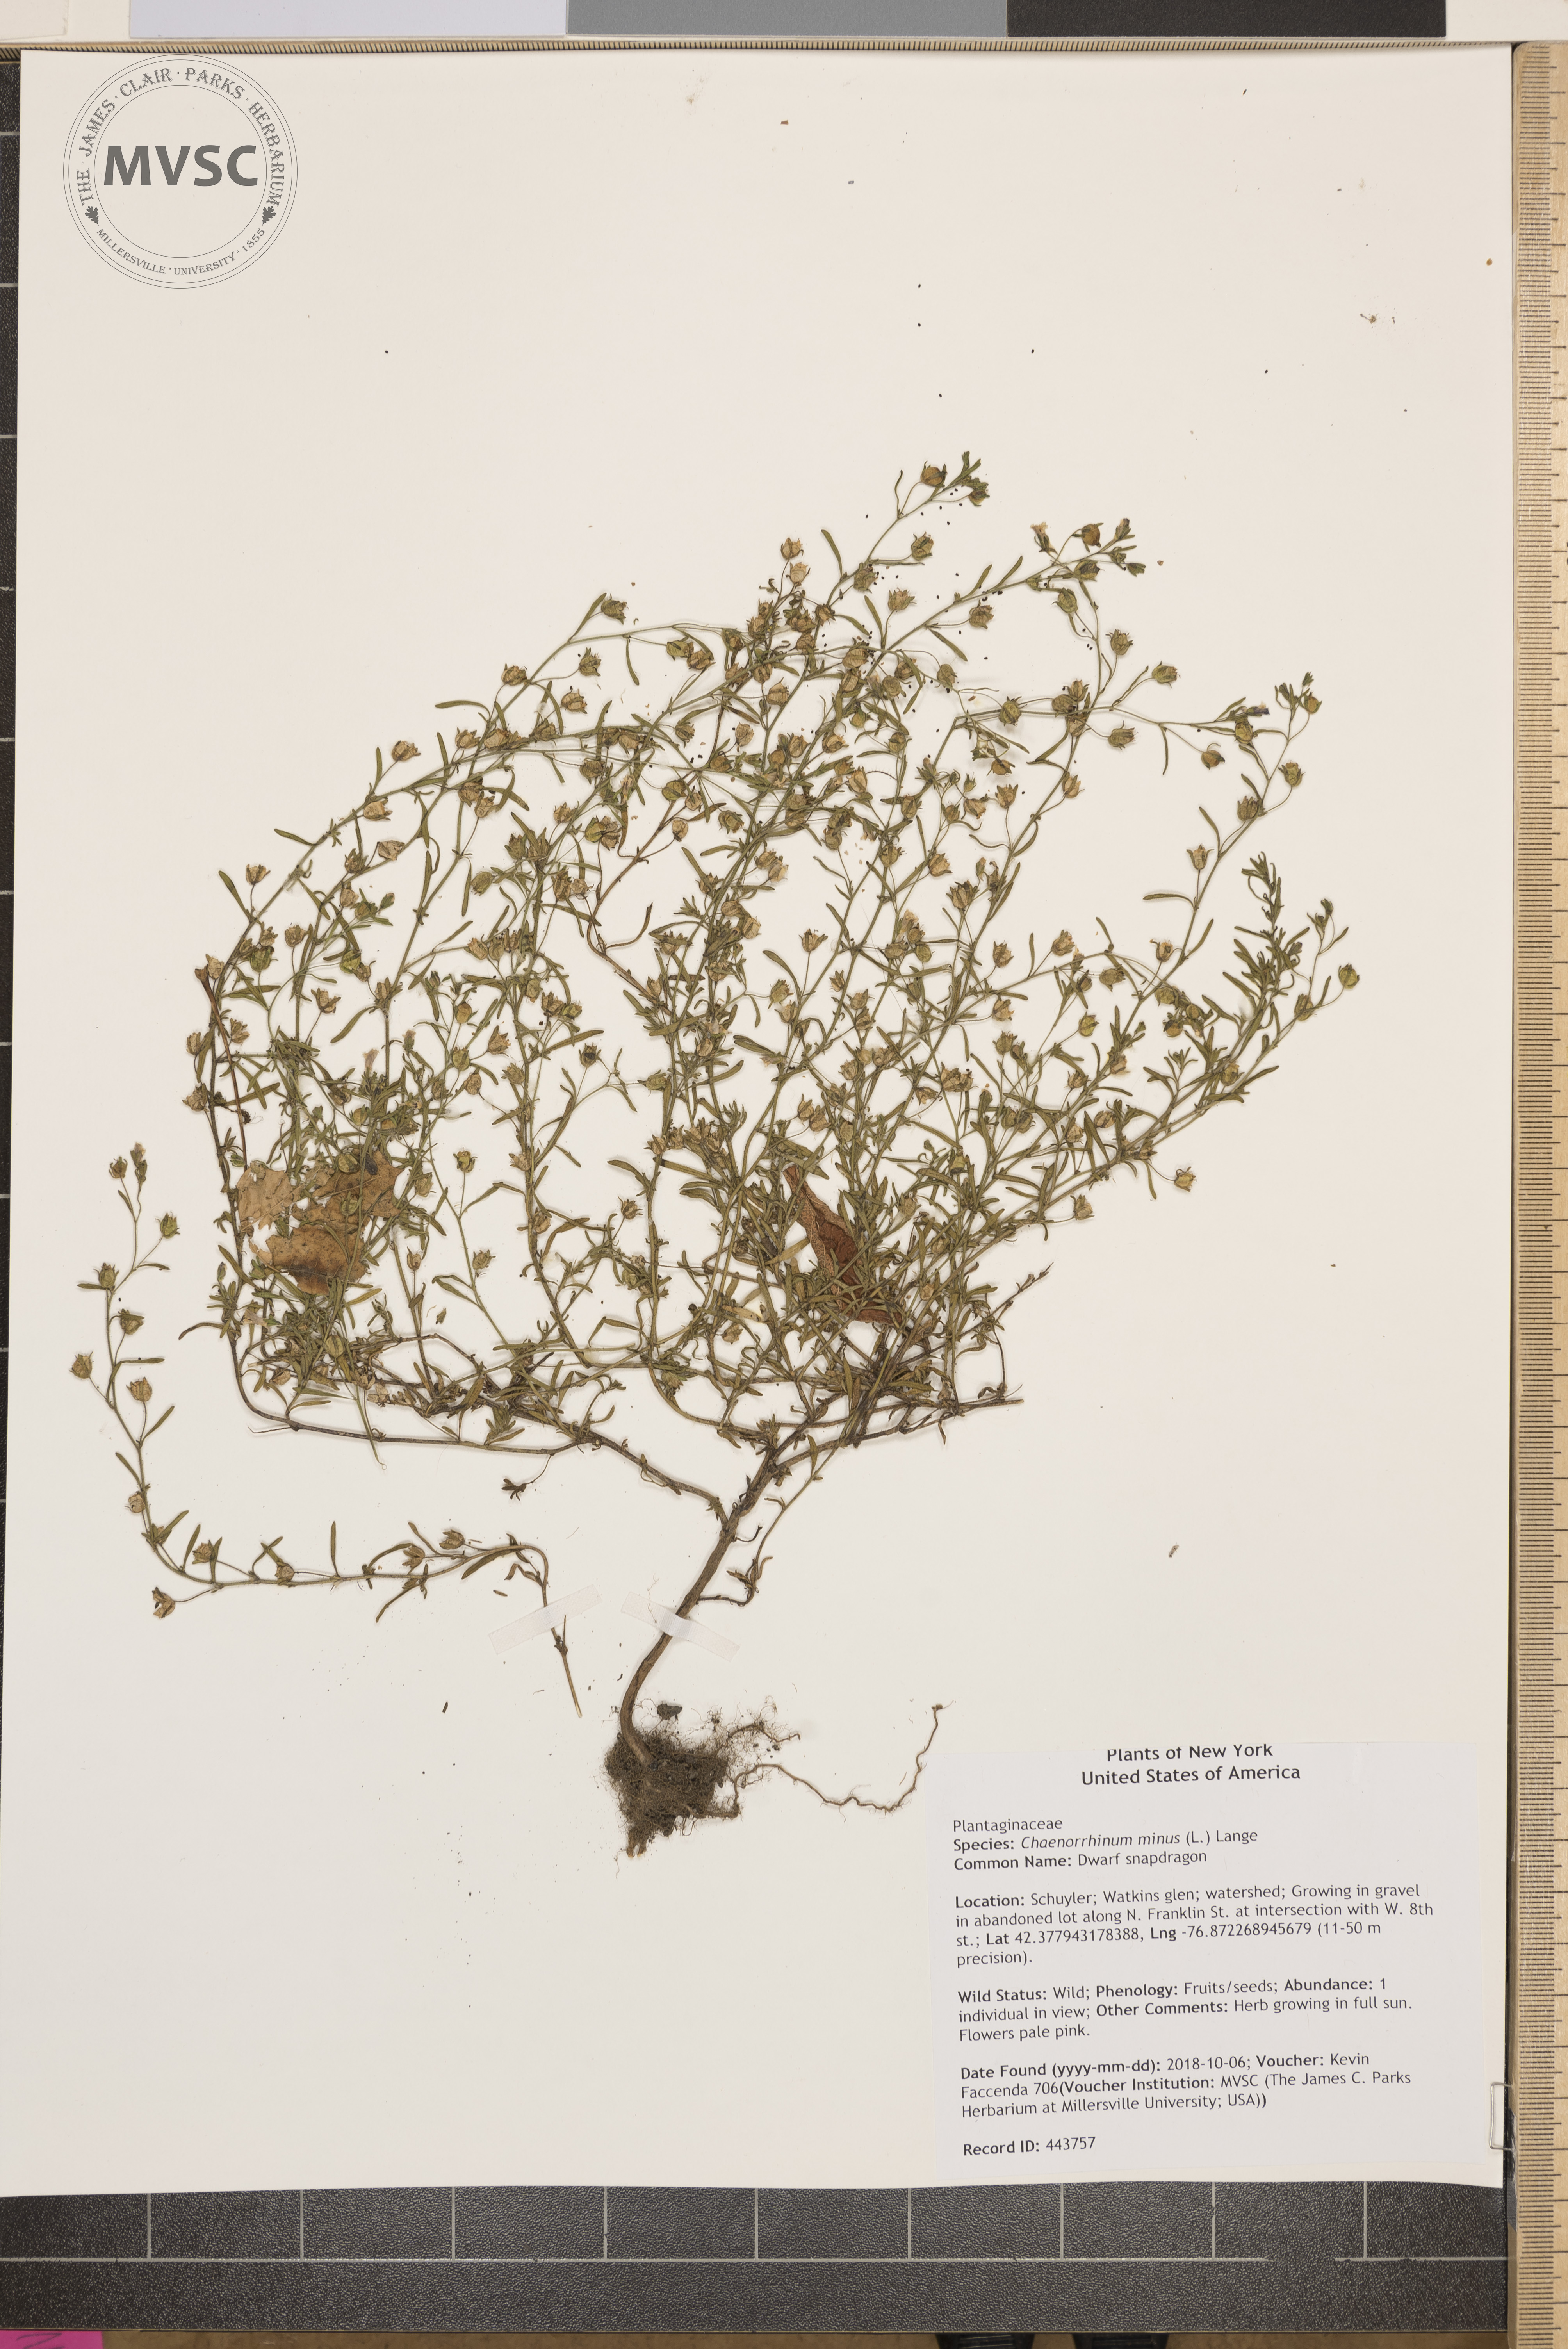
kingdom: Plantae
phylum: Tracheophyta
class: Magnoliopsida
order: Lamiales
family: Plantaginaceae
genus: Chaenorhinum
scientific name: Chaenorhinum minus
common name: Dwarf snapdragon
